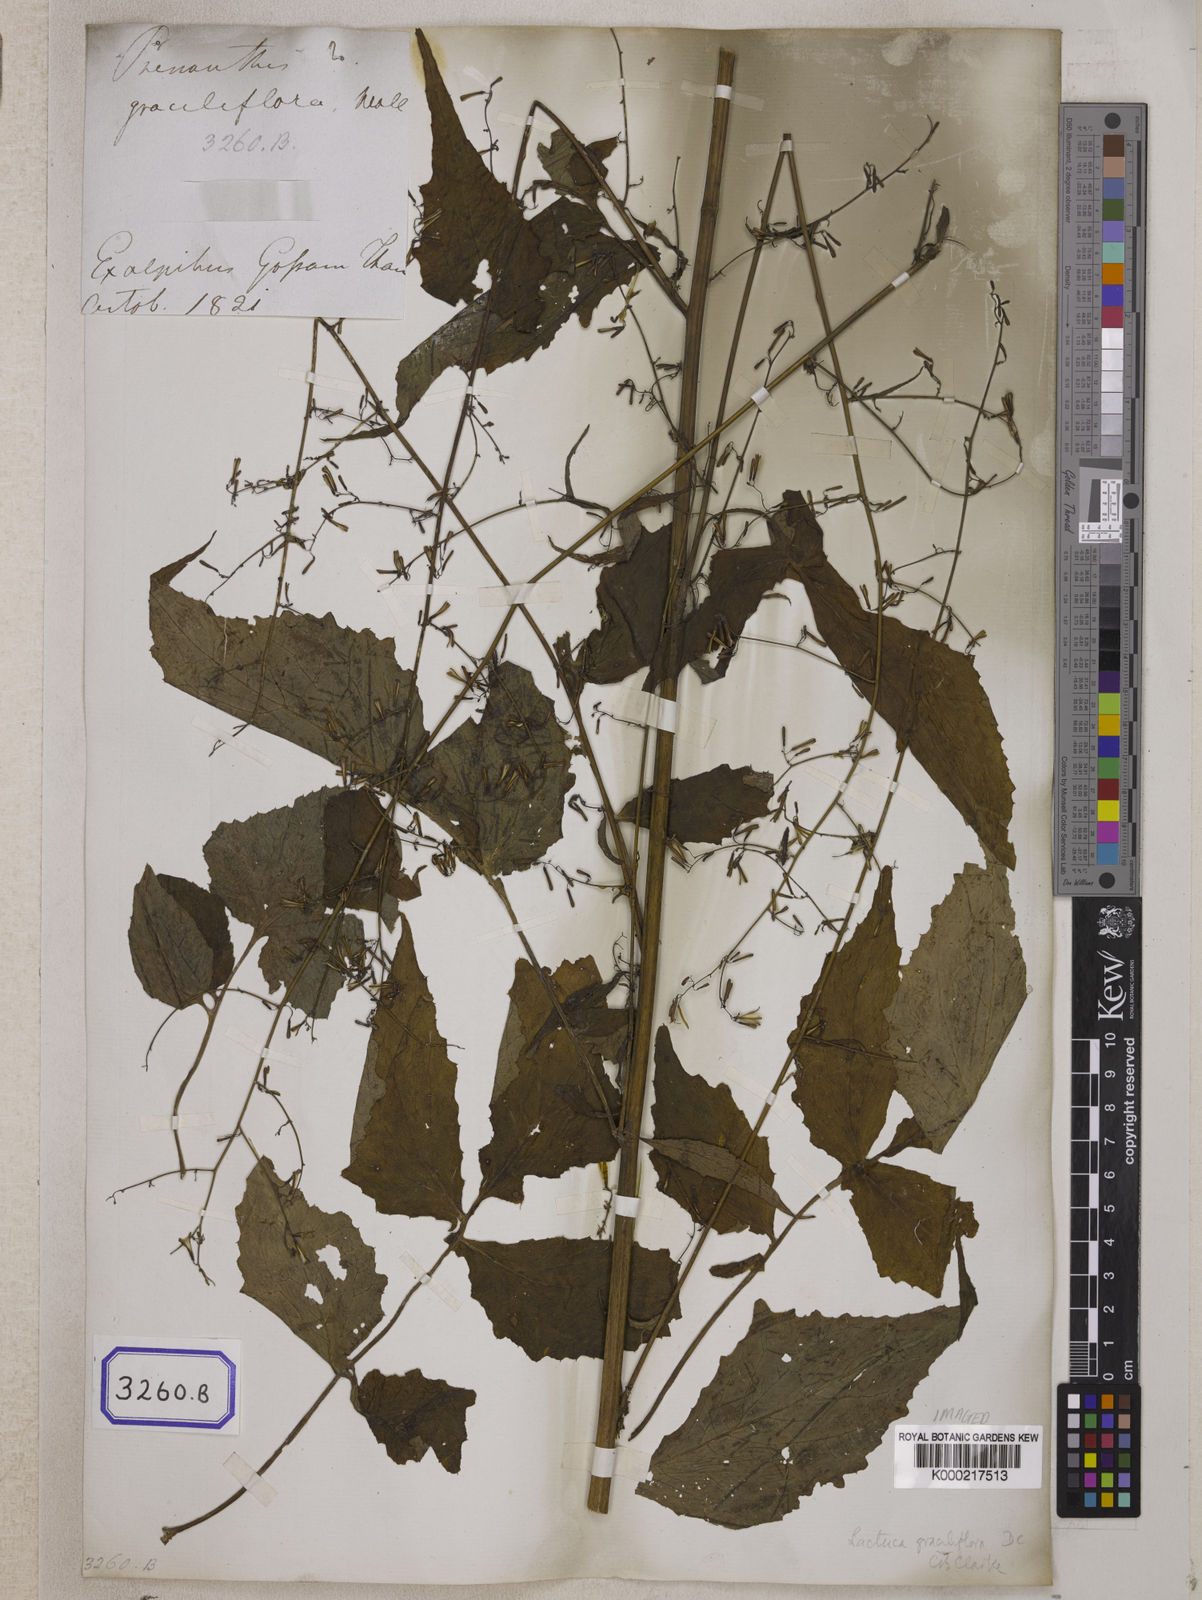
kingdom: Plantae
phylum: Tracheophyta
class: Magnoliopsida
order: Asterales
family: Asteraceae
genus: Melanoseris
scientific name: Melanoseris graciliflora
